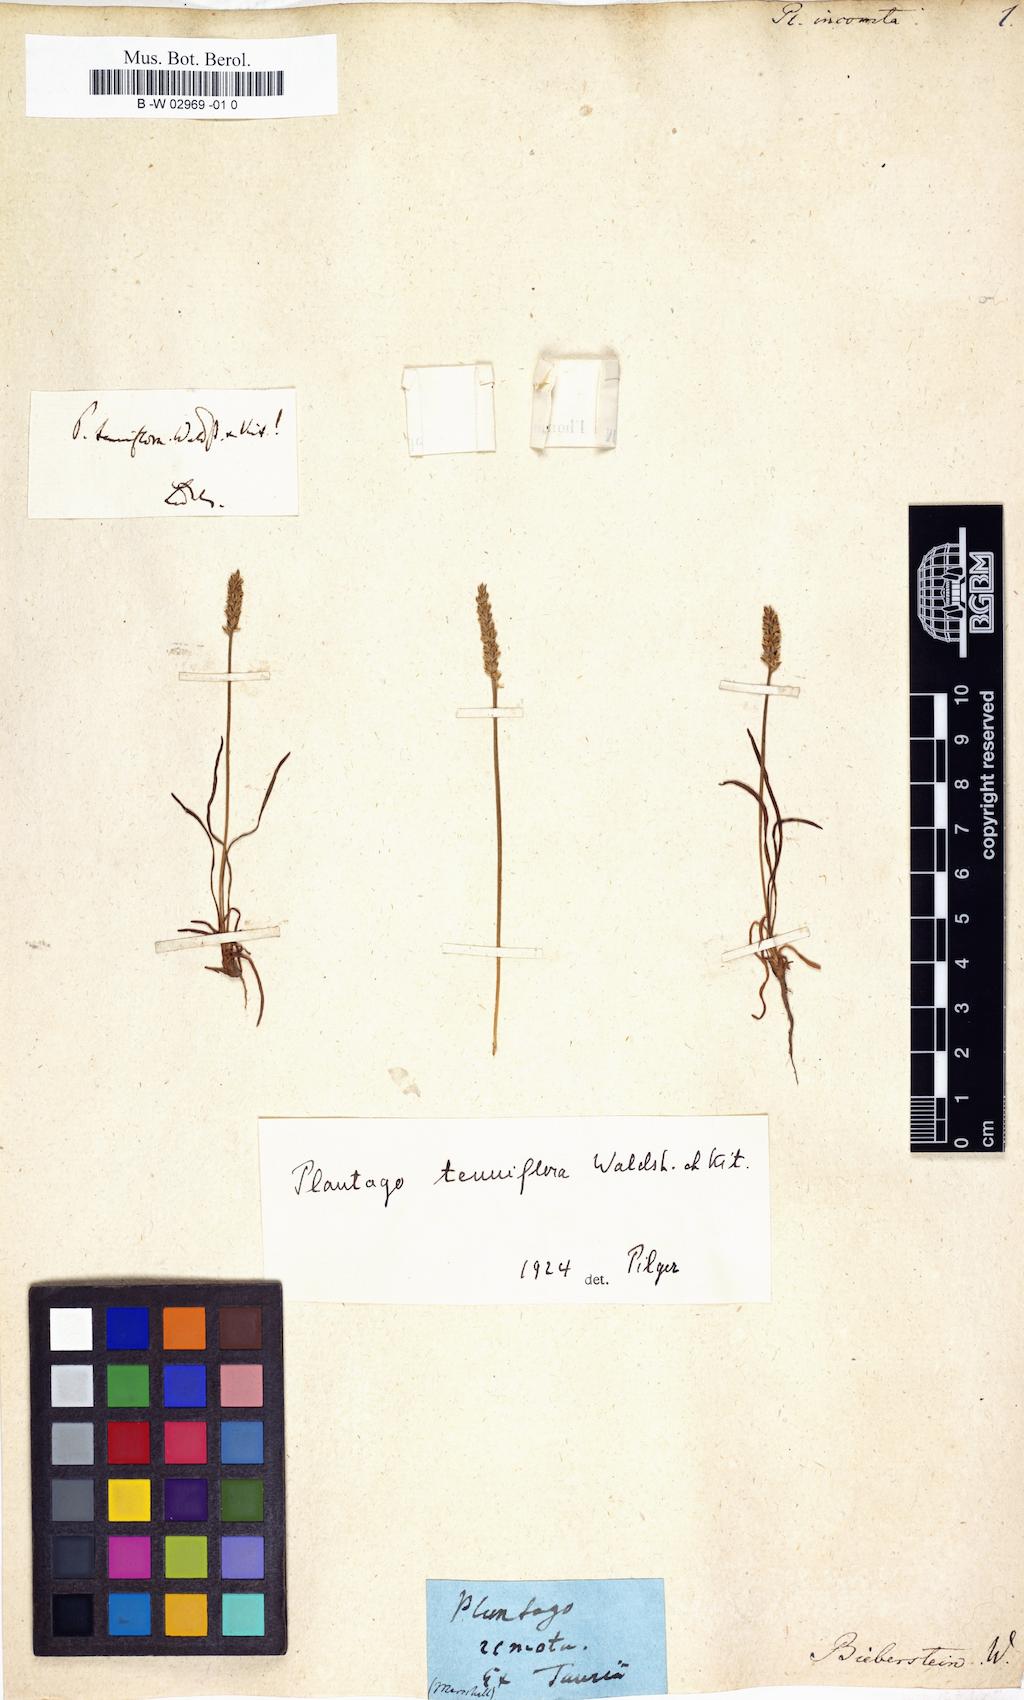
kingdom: Plantae
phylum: Tracheophyta
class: Magnoliopsida
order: Lamiales
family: Plantaginaceae
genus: Plantago
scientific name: Plantago tenuiflora
